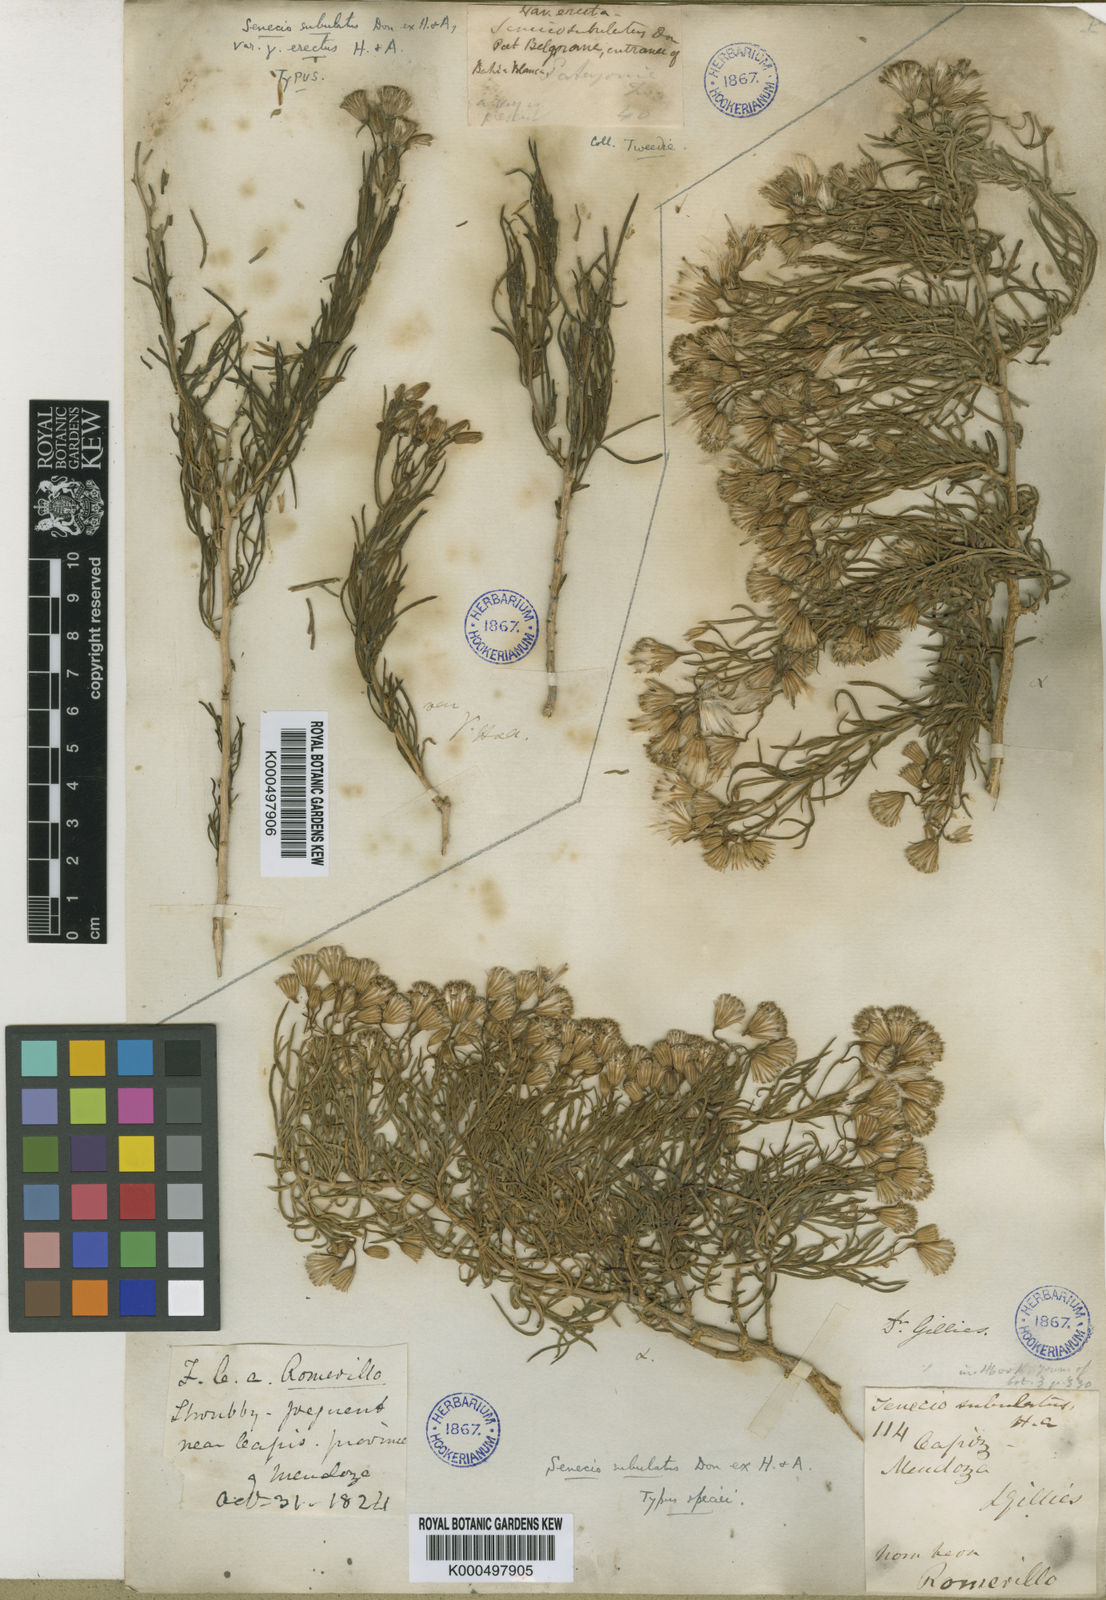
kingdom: Plantae
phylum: Tracheophyta
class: Magnoliopsida
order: Asterales
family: Asteraceae
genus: Senecio
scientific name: Senecio subulatus
